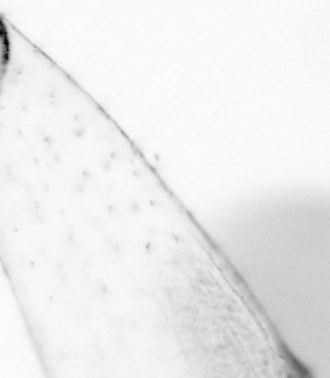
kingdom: Animalia
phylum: Chordata
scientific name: Chordata
